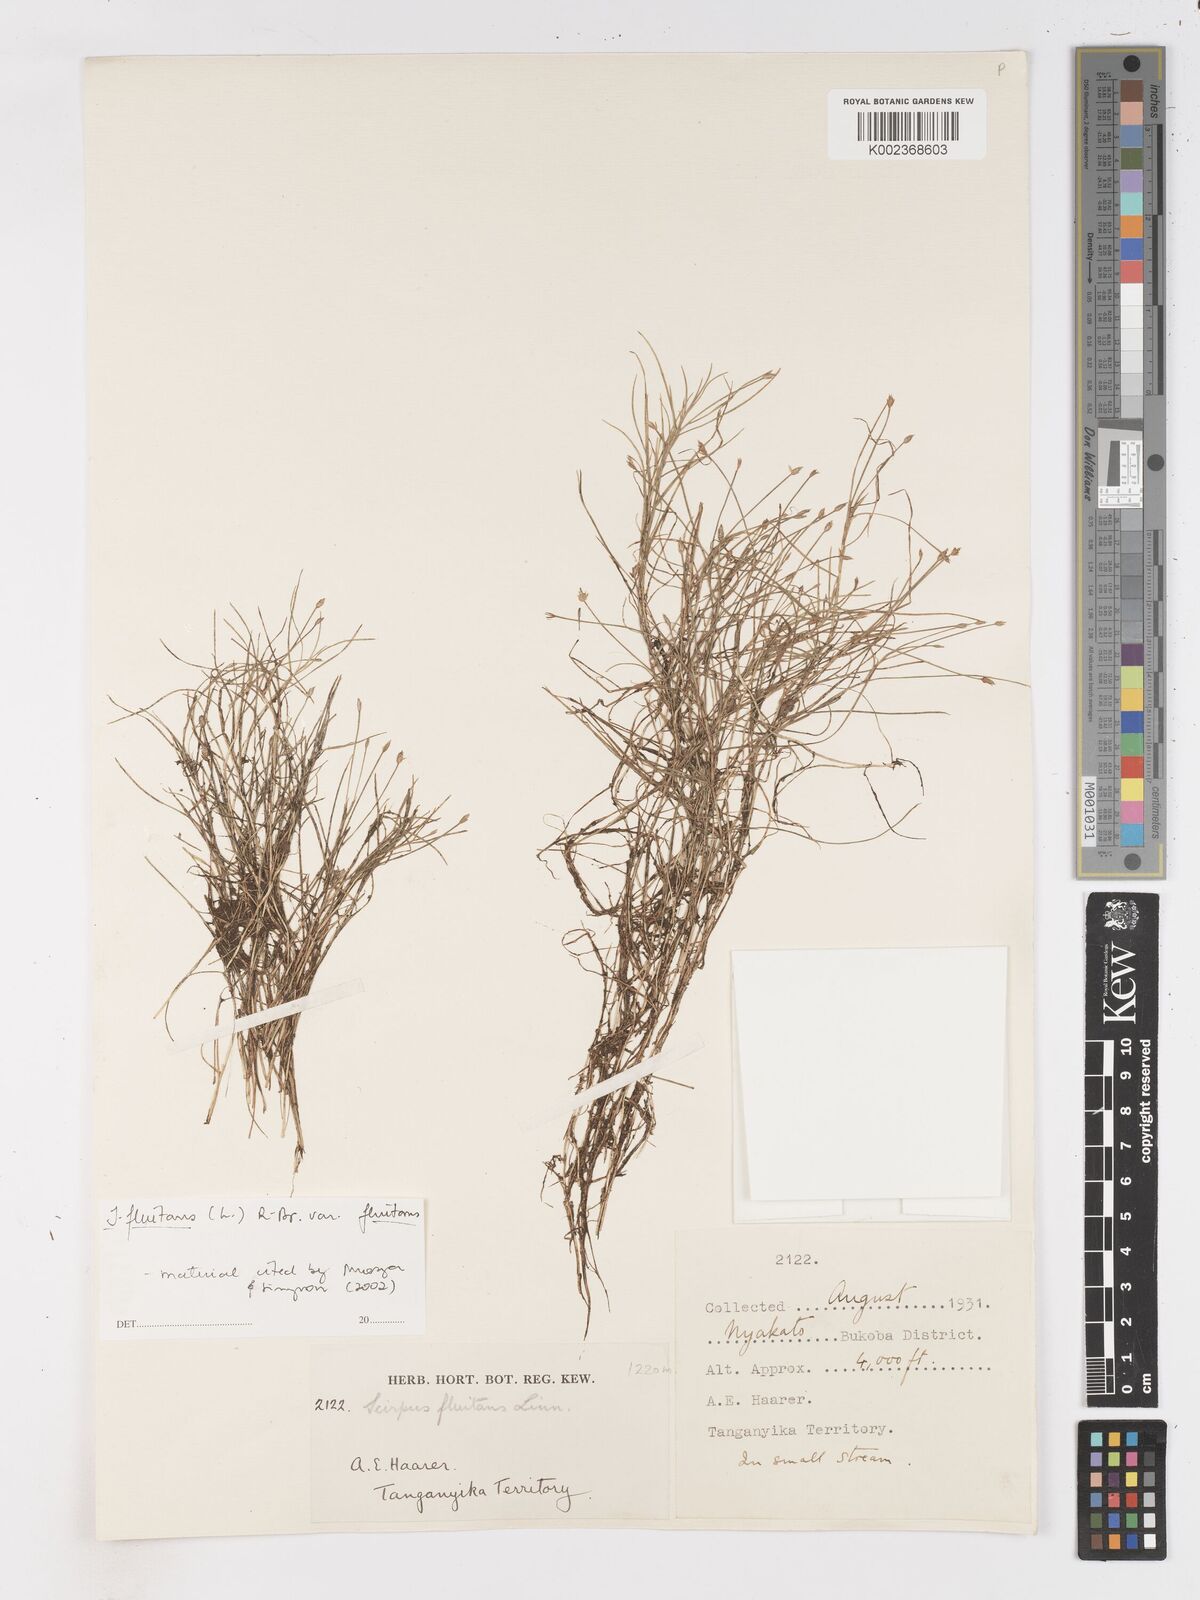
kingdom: Plantae
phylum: Tracheophyta
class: Liliopsida
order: Poales
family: Cyperaceae
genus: Isolepis
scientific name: Isolepis fluitans
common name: Floating club-rush
